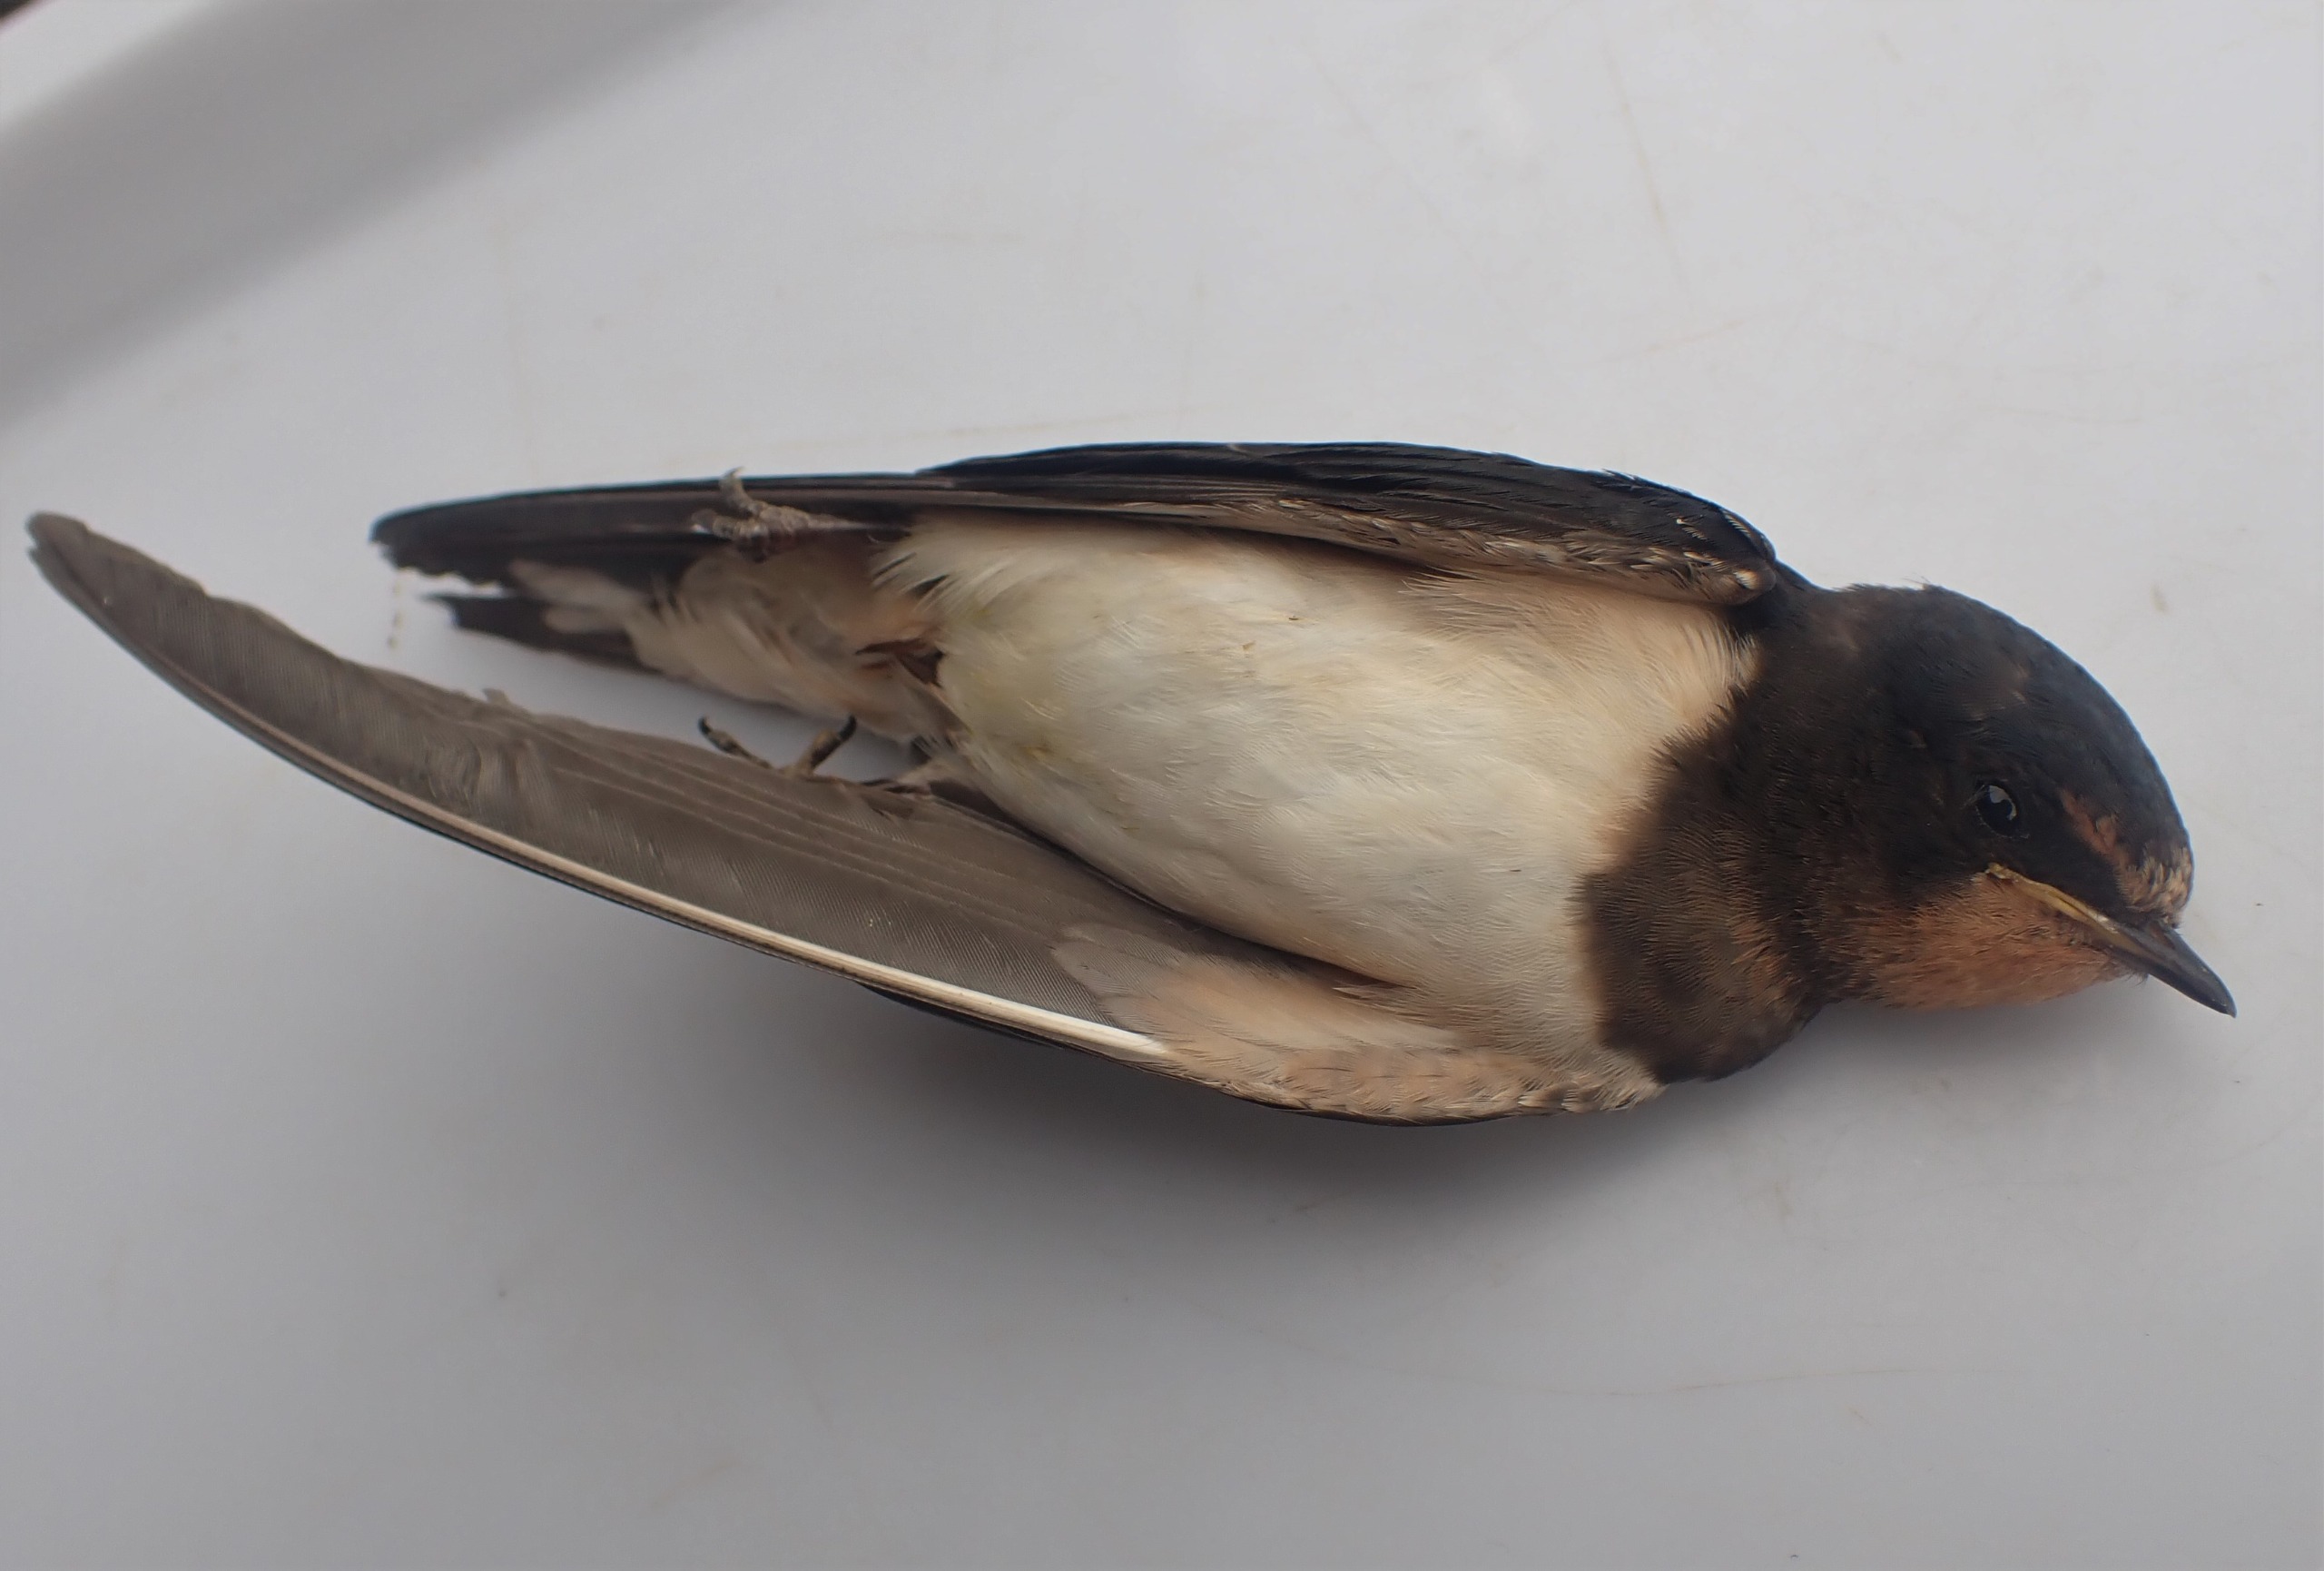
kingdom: Animalia
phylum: Chordata
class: Aves
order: Passeriformes
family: Hirundinidae
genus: Hirundo
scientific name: Hirundo rustica
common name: Landsvale
